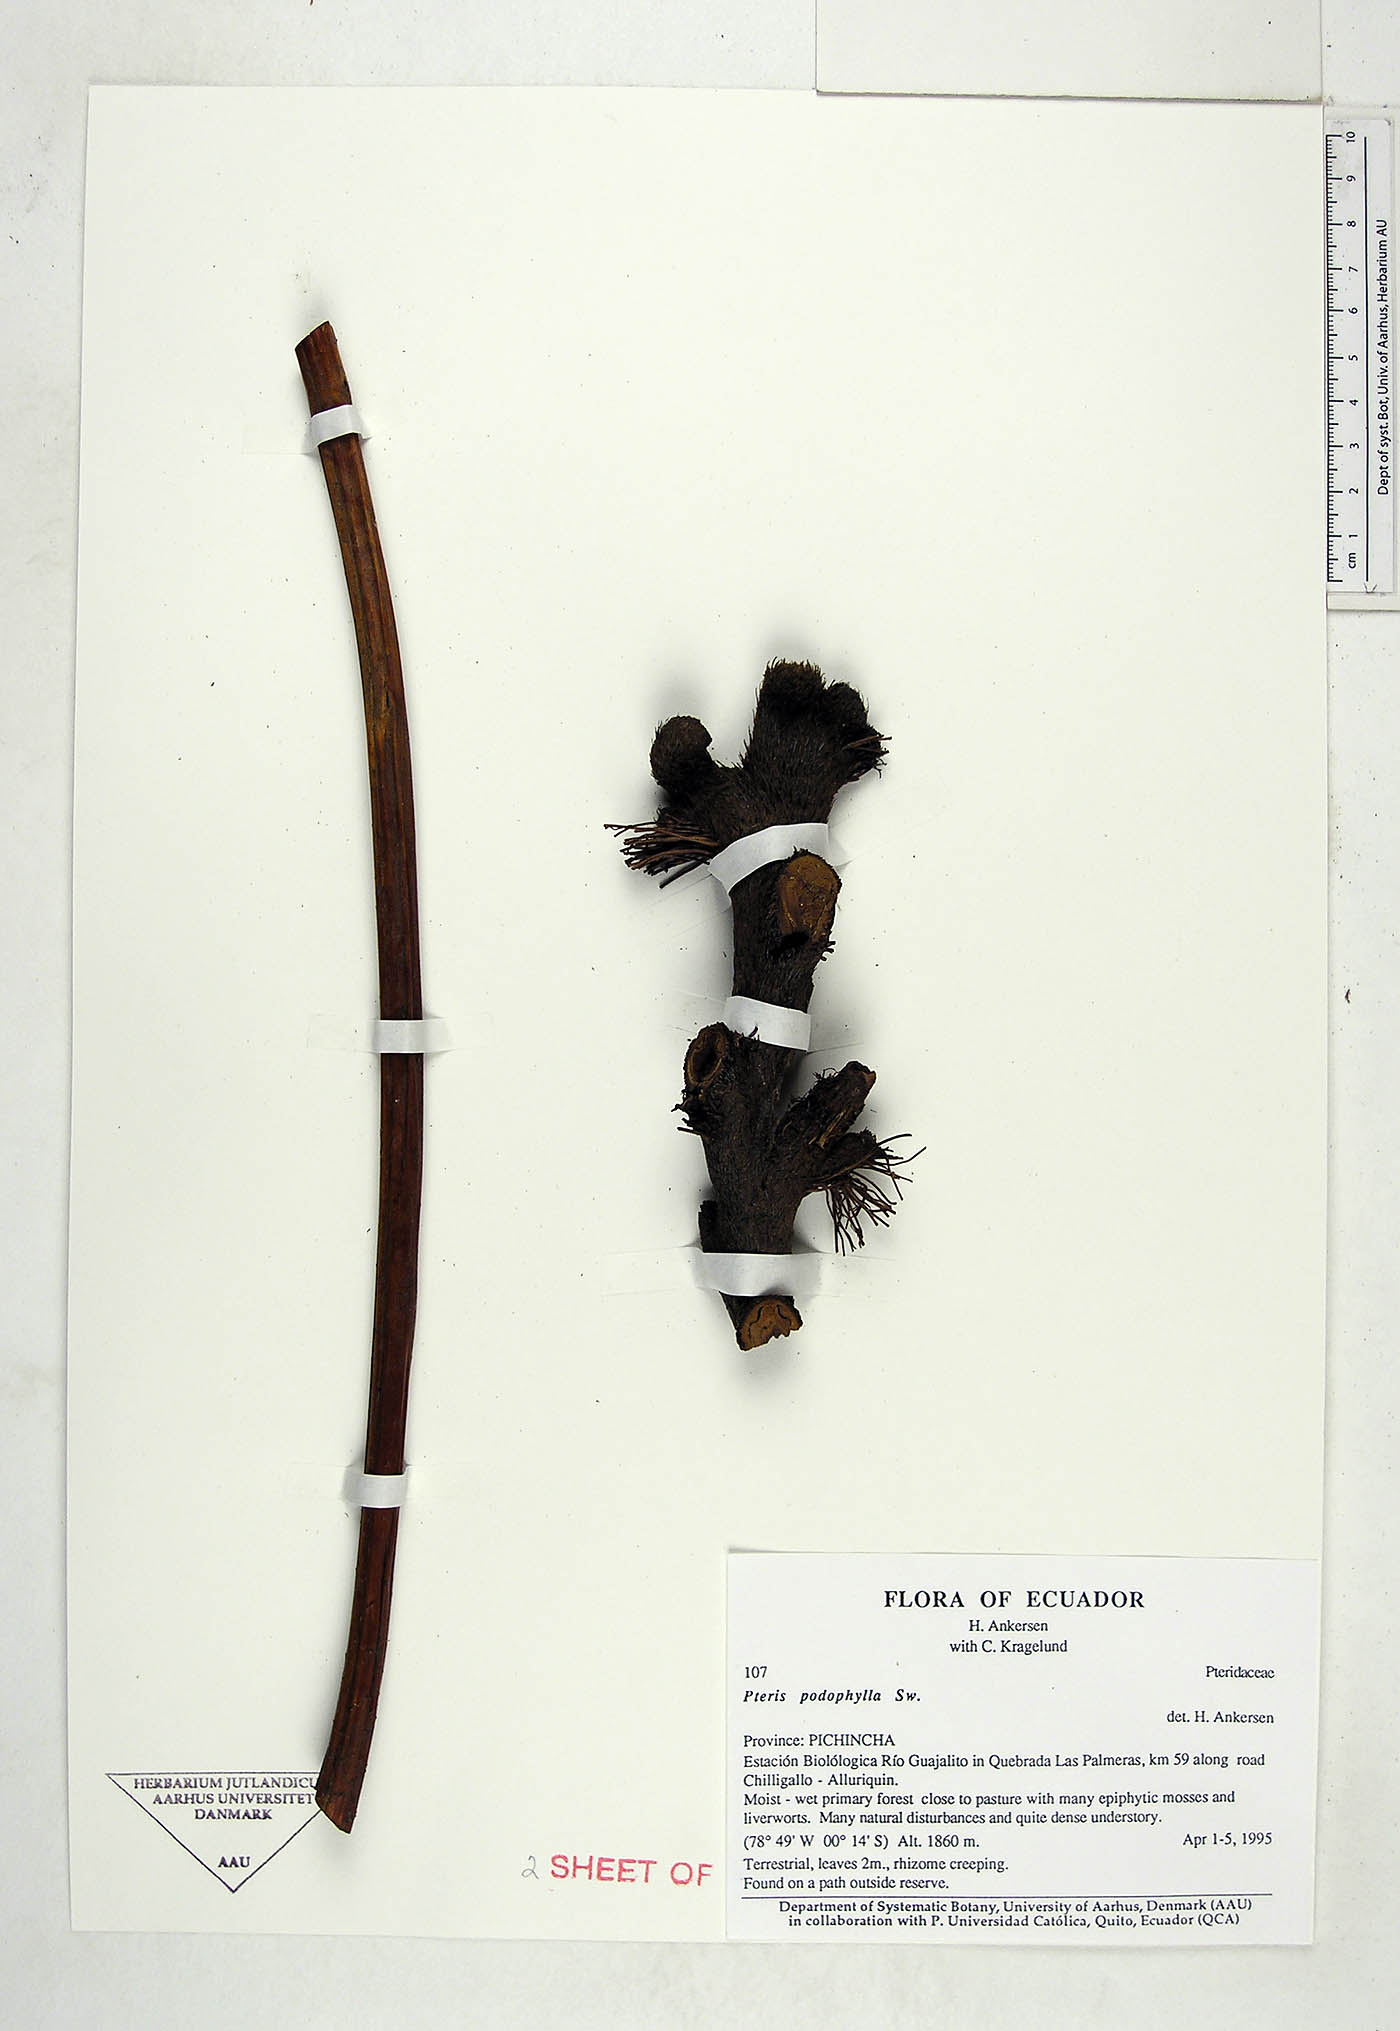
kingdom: Plantae
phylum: Tracheophyta
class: Polypodiopsida
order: Polypodiales
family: Pteridaceae
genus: Pteris
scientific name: Pteris podophylla
